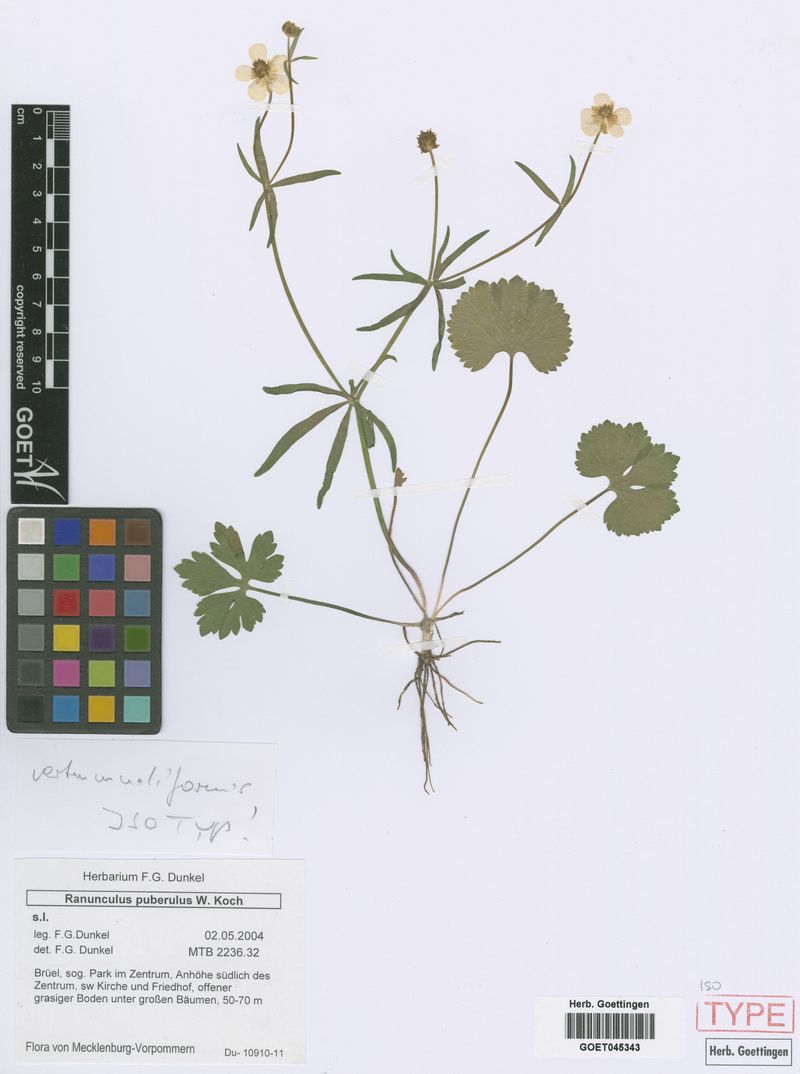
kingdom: Plantae
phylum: Tracheophyta
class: Magnoliopsida
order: Ranunculales
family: Ranunculaceae
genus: Ranunculus
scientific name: Ranunculus vertumnaliformis
